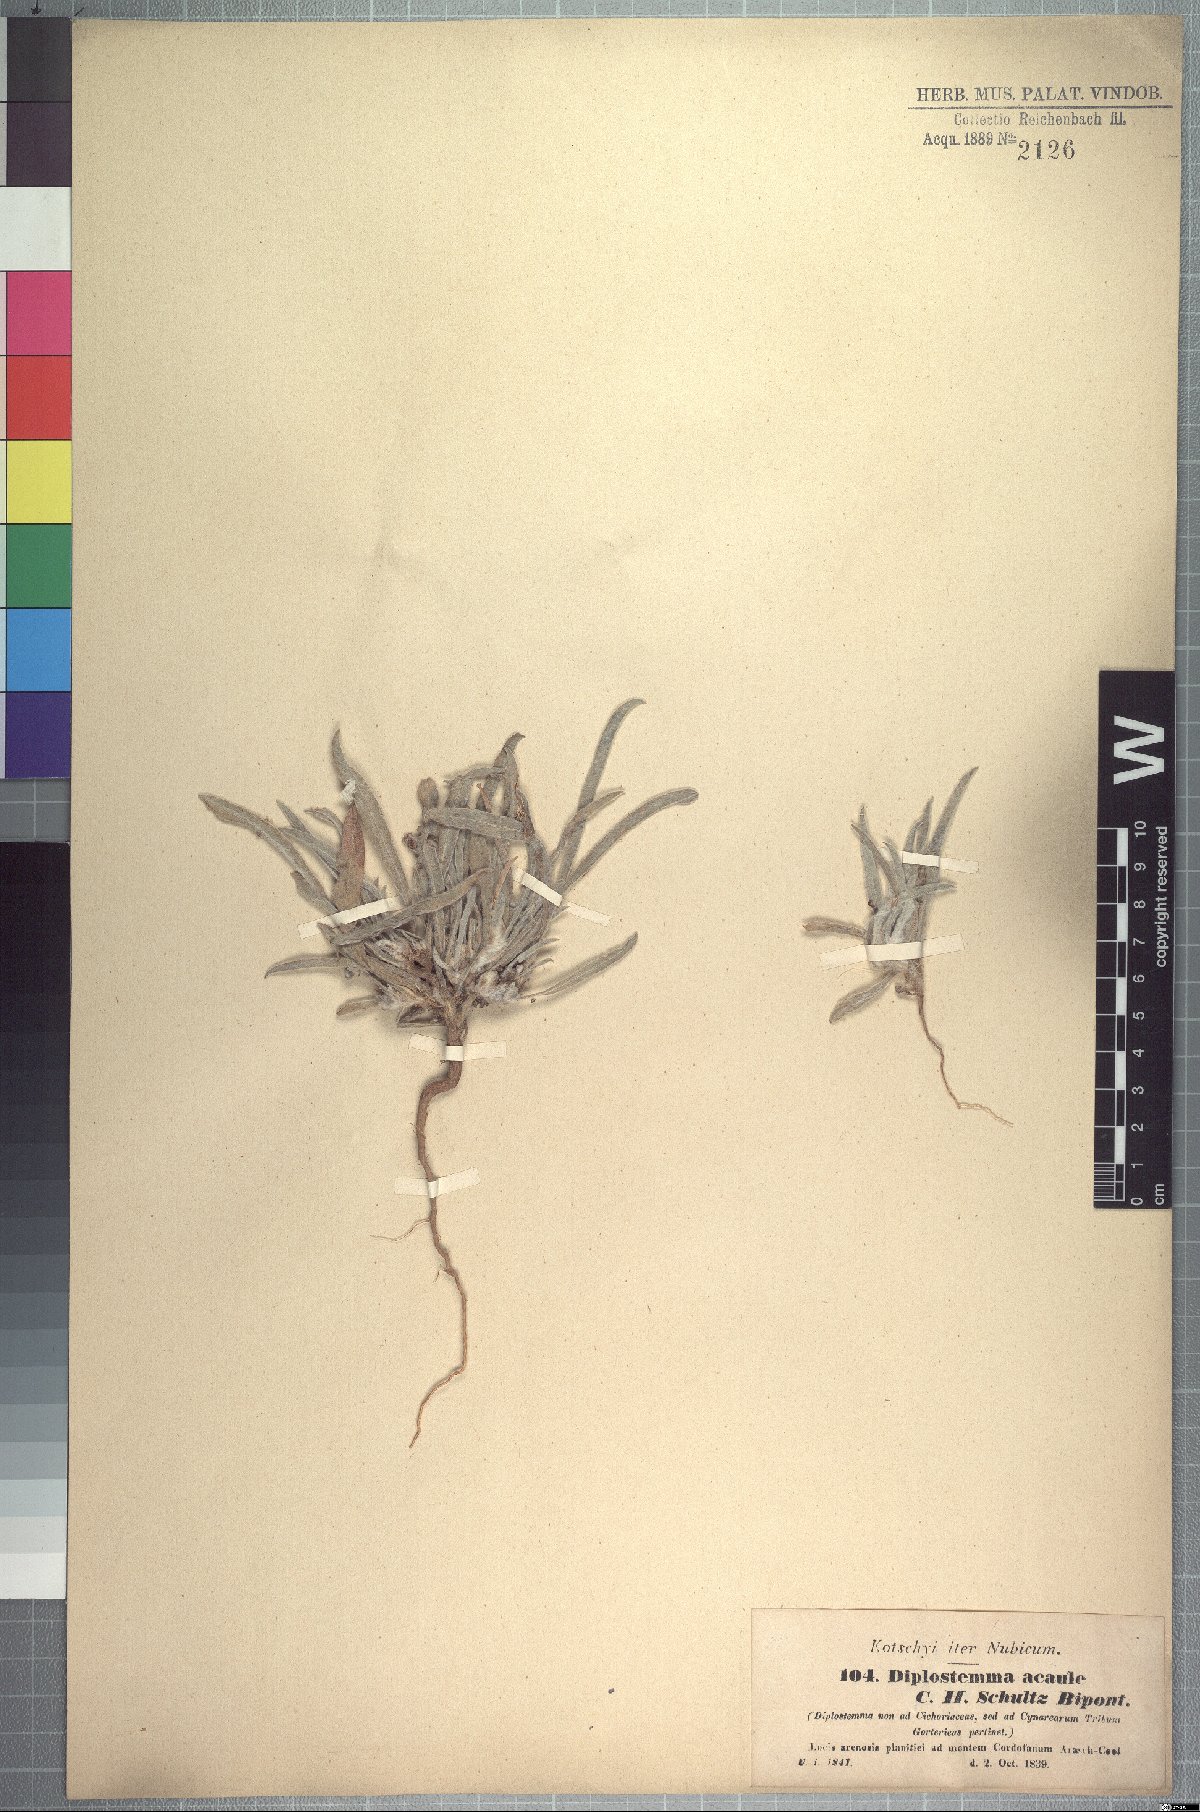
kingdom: Plantae
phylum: Tracheophyta
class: Magnoliopsida
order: Asterales
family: Asteraceae
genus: Geigeria
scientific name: Geigeria acaulis
